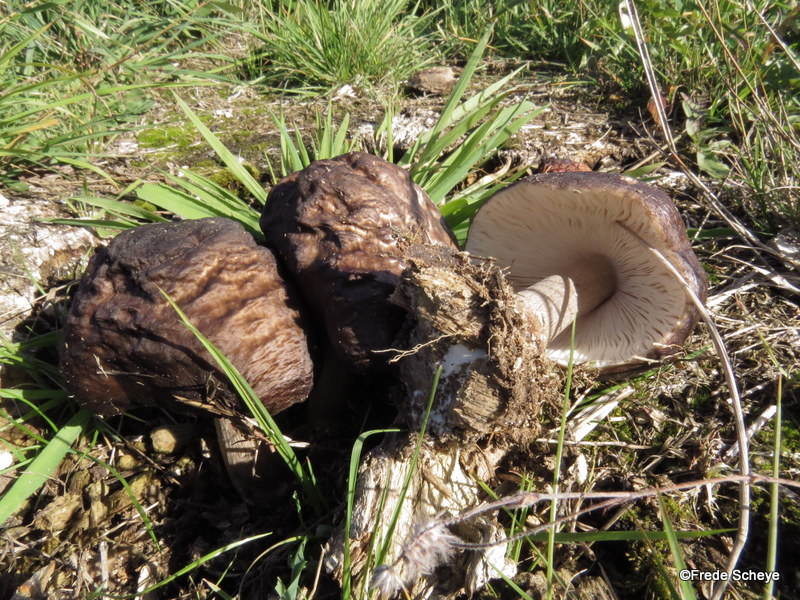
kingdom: Fungi
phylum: Basidiomycota
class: Agaricomycetes
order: Agaricales
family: Pluteaceae
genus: Pluteus
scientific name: Pluteus cervinus
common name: sodfarvet skærmhat
